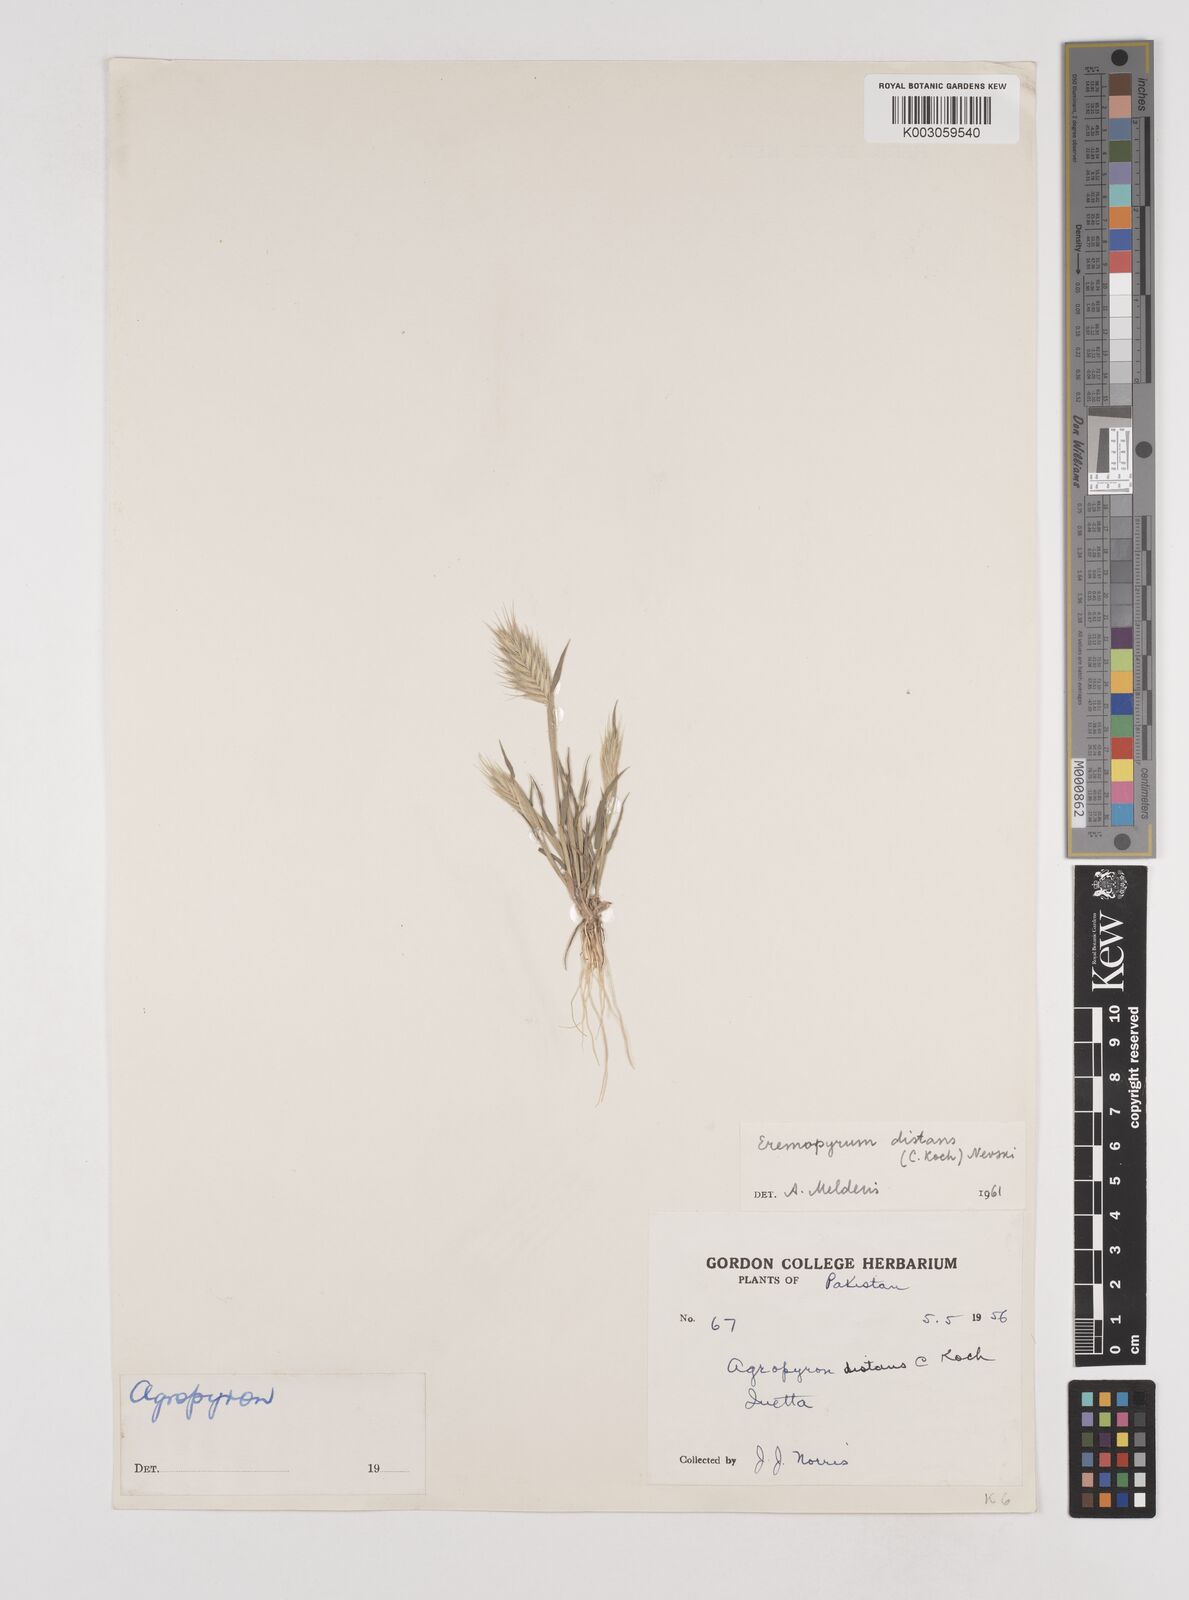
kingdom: Plantae
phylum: Tracheophyta
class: Liliopsida
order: Poales
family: Poaceae
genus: Eremopyrum
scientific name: Eremopyrum distans
